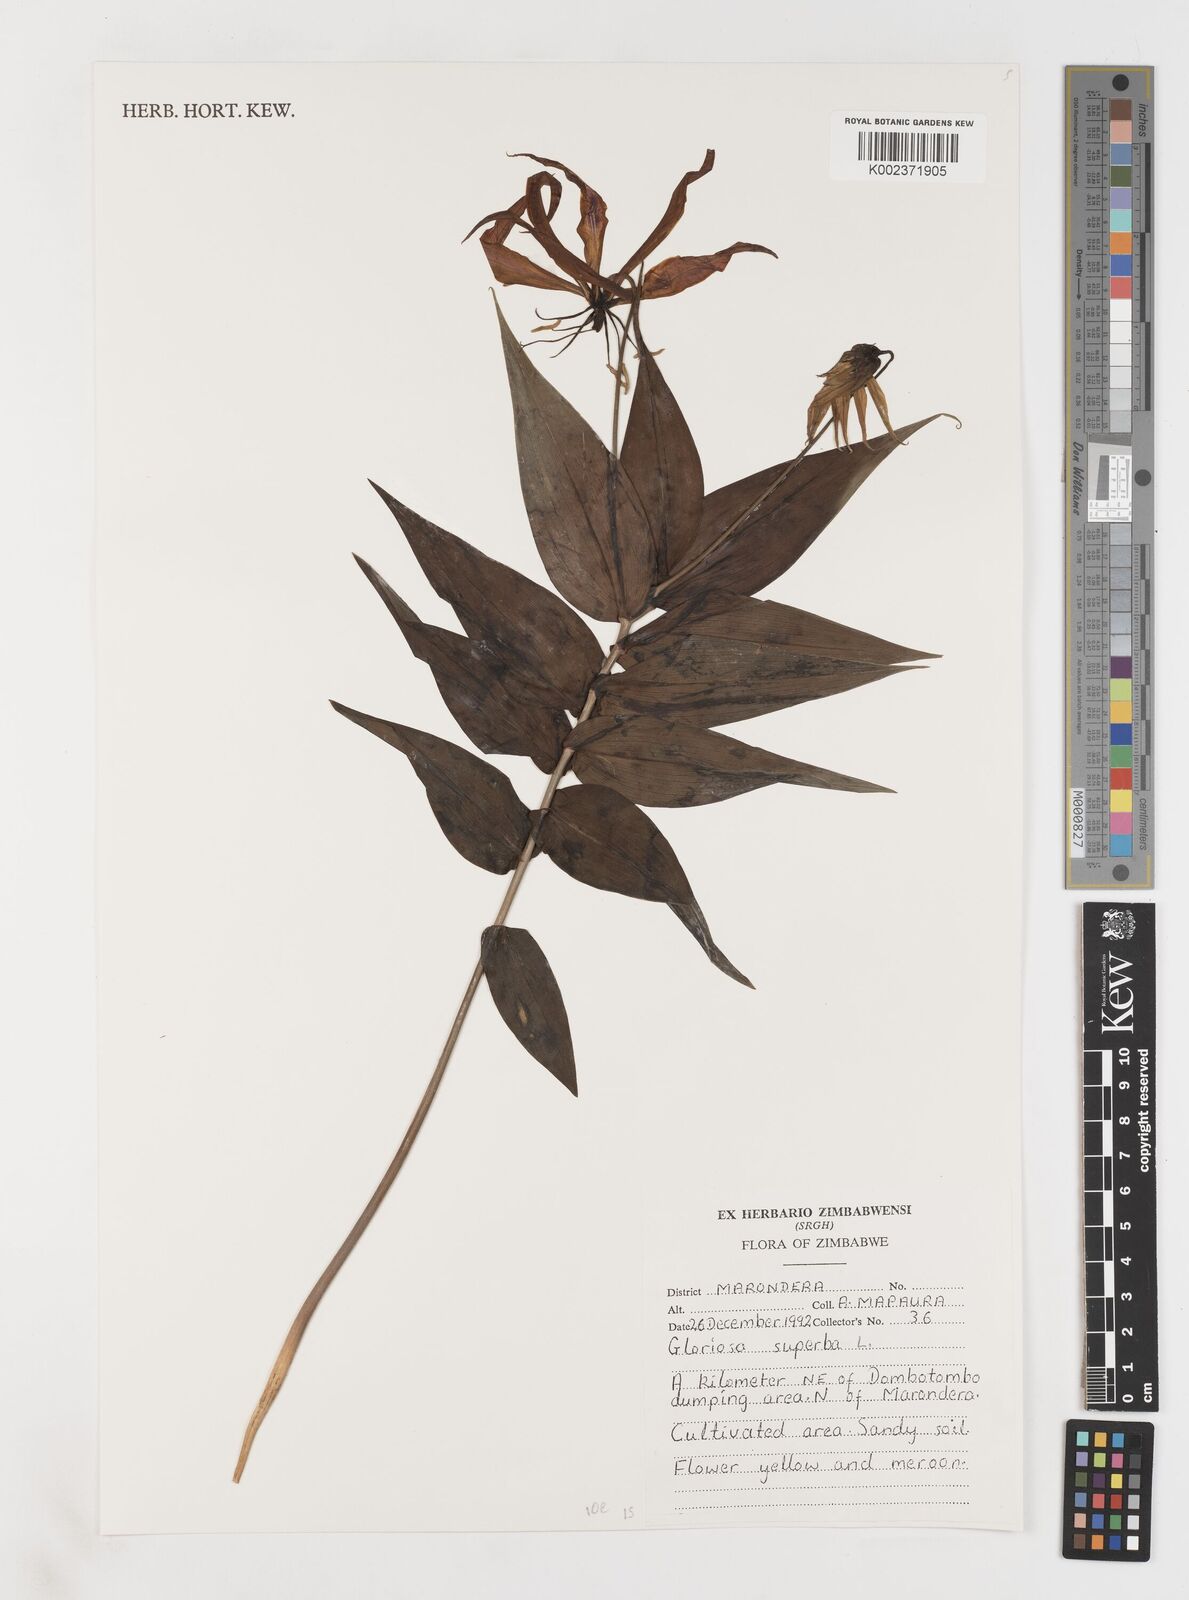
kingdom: Plantae
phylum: Tracheophyta
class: Liliopsida
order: Liliales
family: Colchicaceae
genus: Gloriosa
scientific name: Gloriosa simplex
